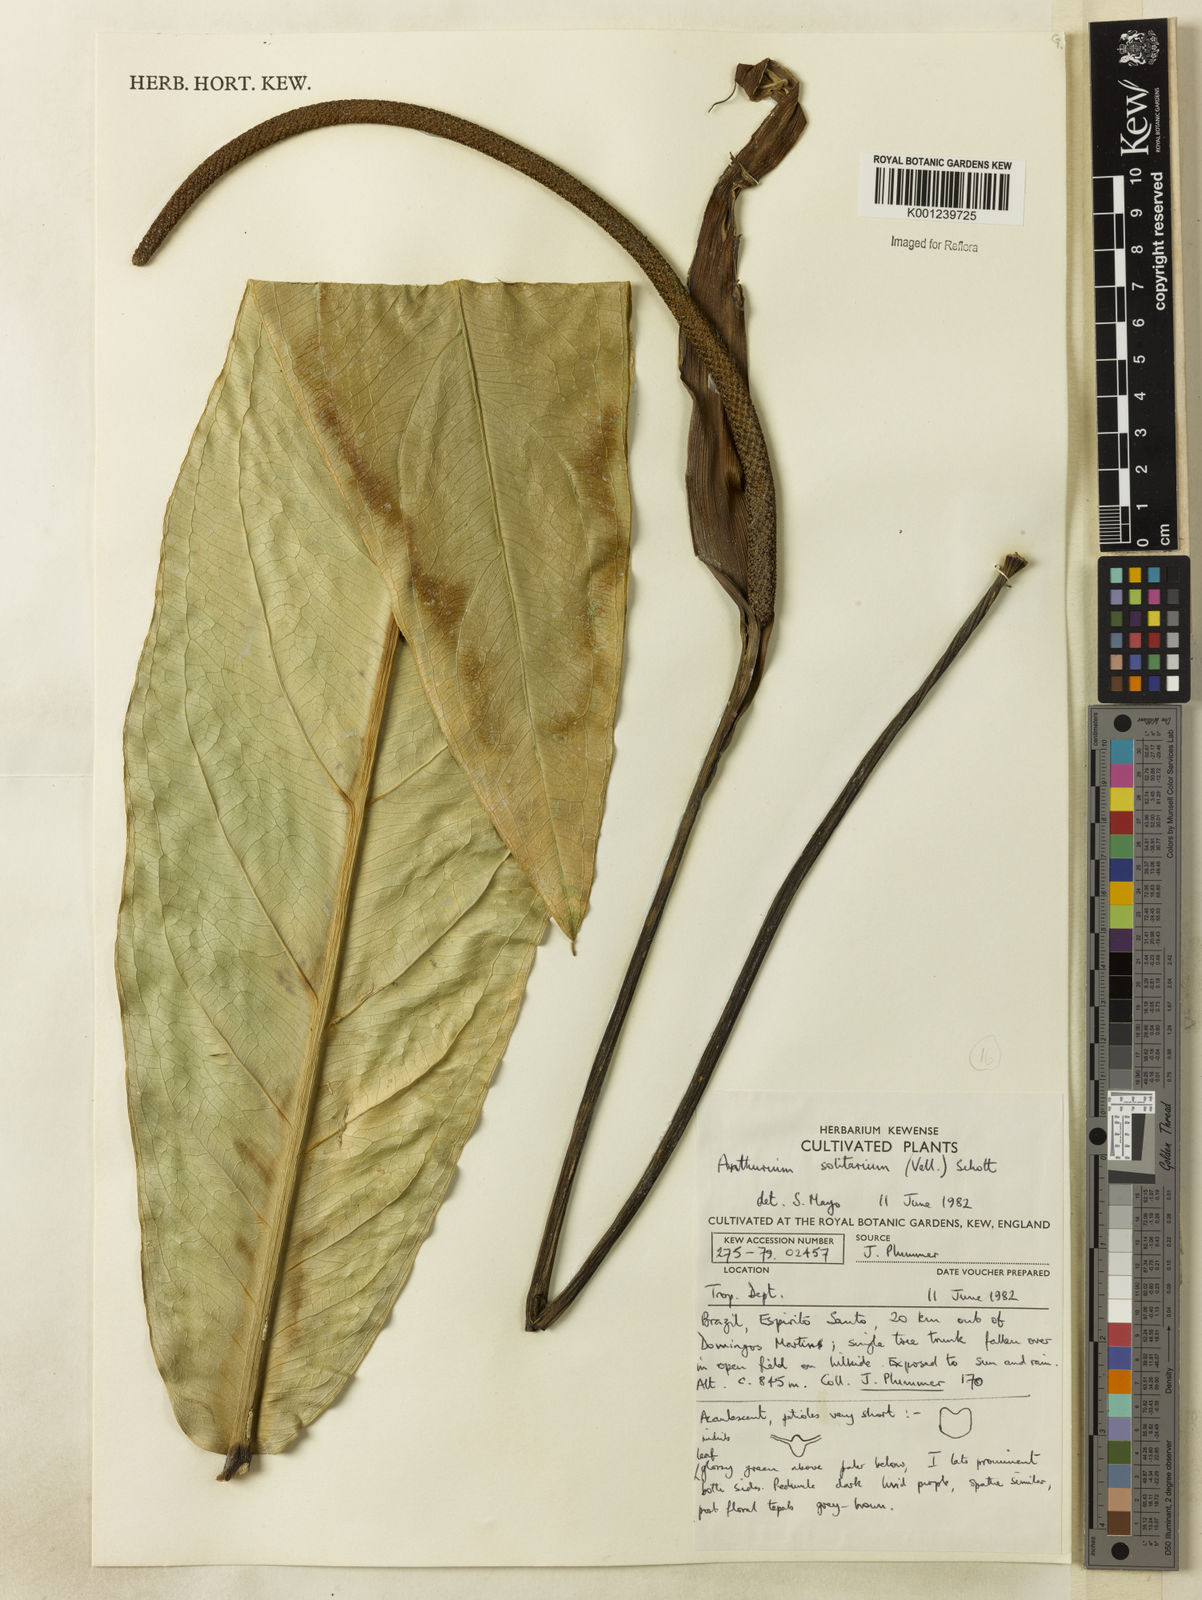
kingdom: Plantae
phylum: Tracheophyta
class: Liliopsida
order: Alismatales
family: Araceae
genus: Anthurium
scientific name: Anthurium solitarium
